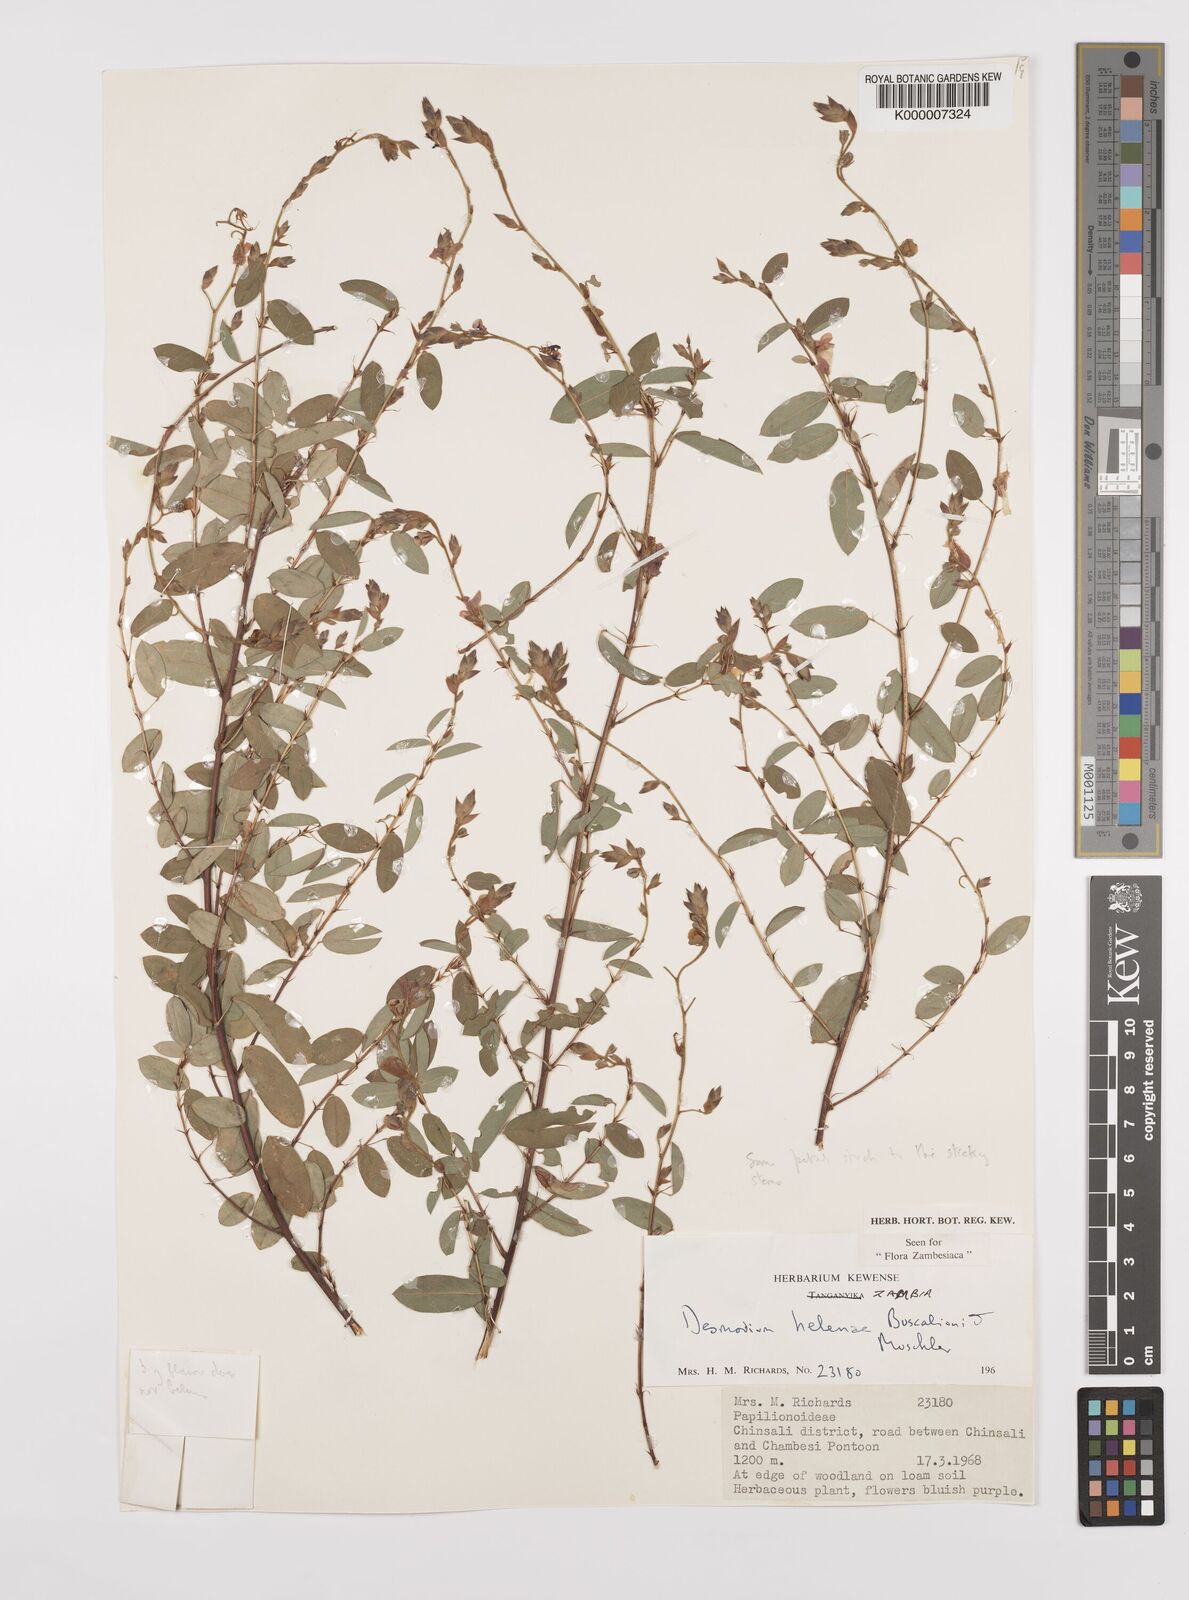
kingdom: Plantae
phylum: Tracheophyta
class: Magnoliopsida
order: Fabales
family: Fabaceae
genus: Grona
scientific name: Grona helenae
